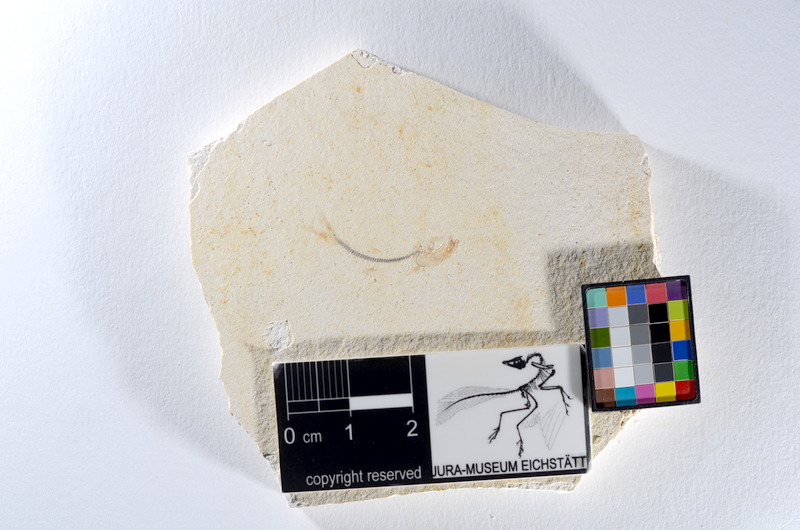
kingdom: Animalia
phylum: Chordata
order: Salmoniformes
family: Orthogonikleithridae
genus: Orthogonikleithrus
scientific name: Orthogonikleithrus hoelli
